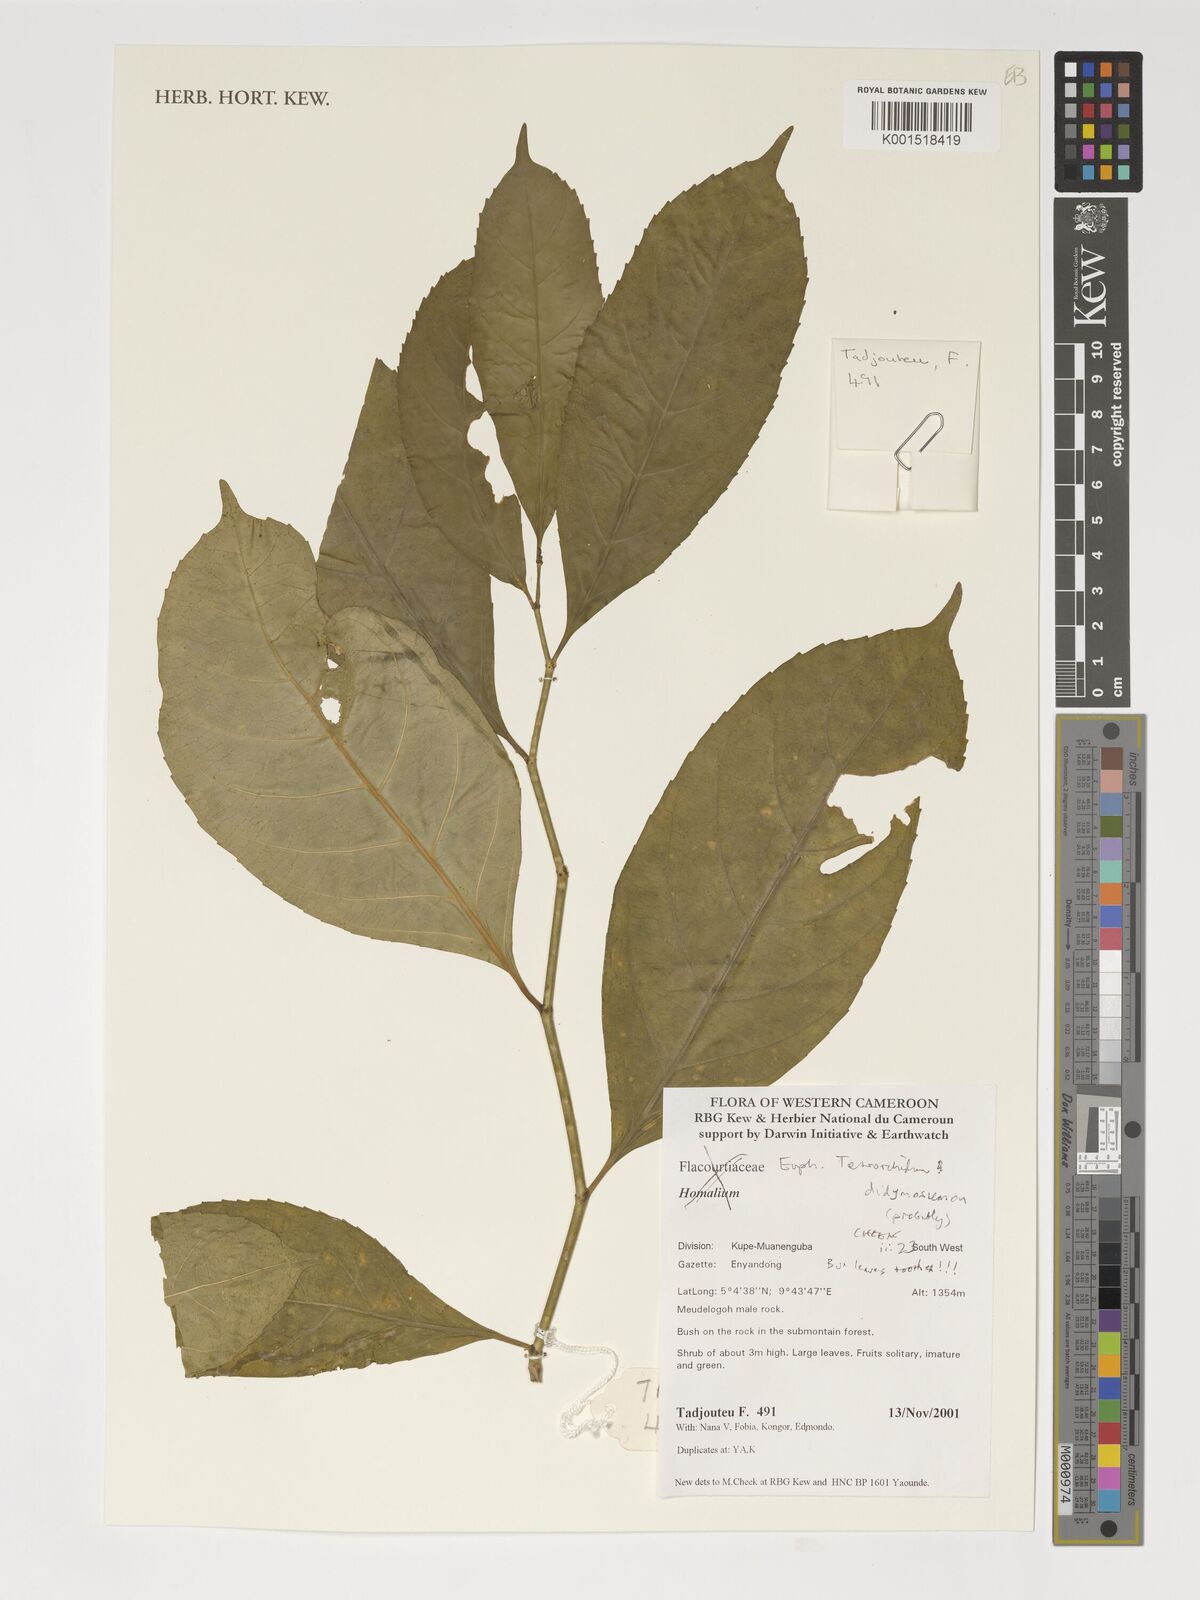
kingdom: Plantae
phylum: Tracheophyta
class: Magnoliopsida
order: Malpighiales
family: Euphorbiaceae
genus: Tetrorchidium
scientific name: Tetrorchidium didymostemon
